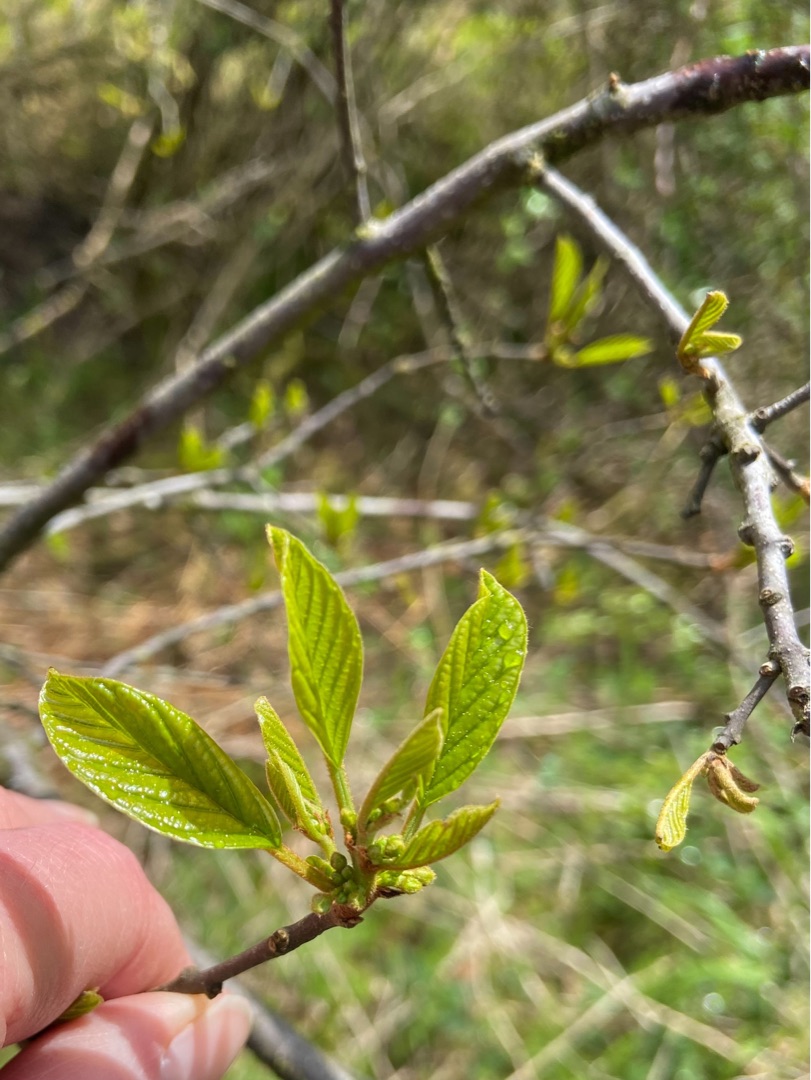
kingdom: Plantae
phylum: Tracheophyta
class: Magnoliopsida
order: Rosales
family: Rhamnaceae
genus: Frangula
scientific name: Frangula alnus
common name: Tørst
